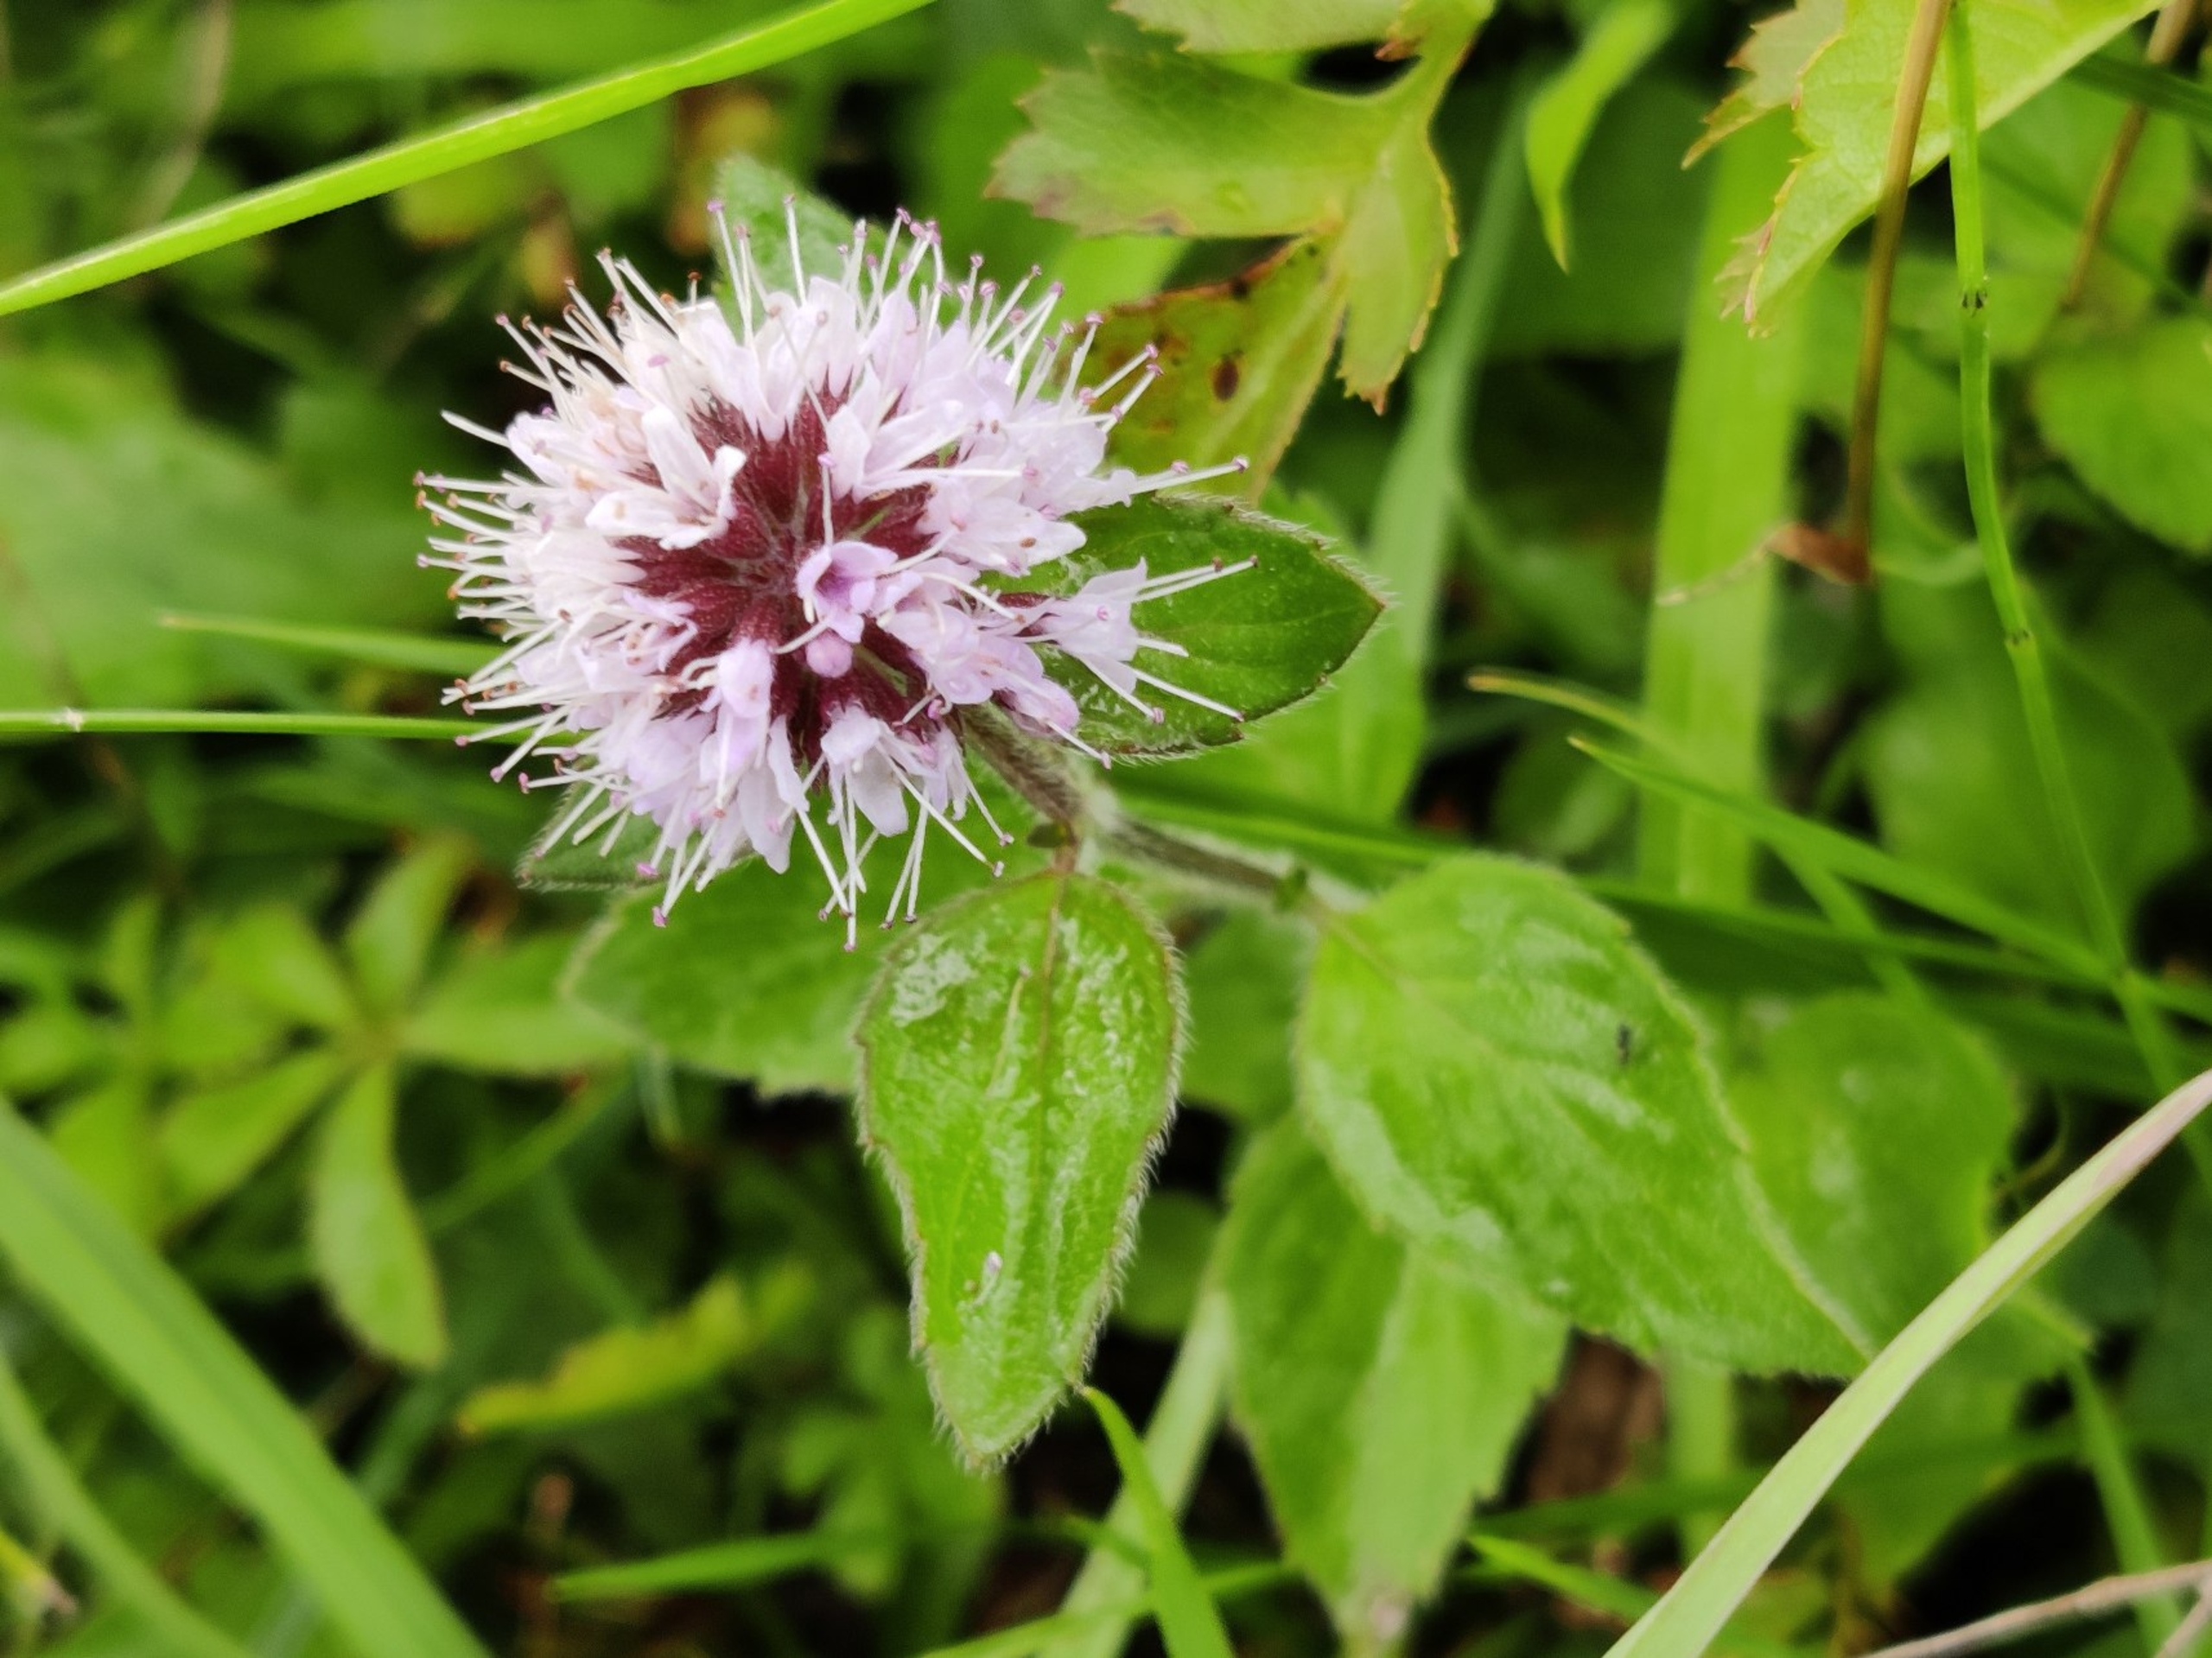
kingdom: Plantae
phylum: Tracheophyta
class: Magnoliopsida
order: Lamiales
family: Lamiaceae
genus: Mentha
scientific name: Mentha aquatica
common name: Vand-mynte
